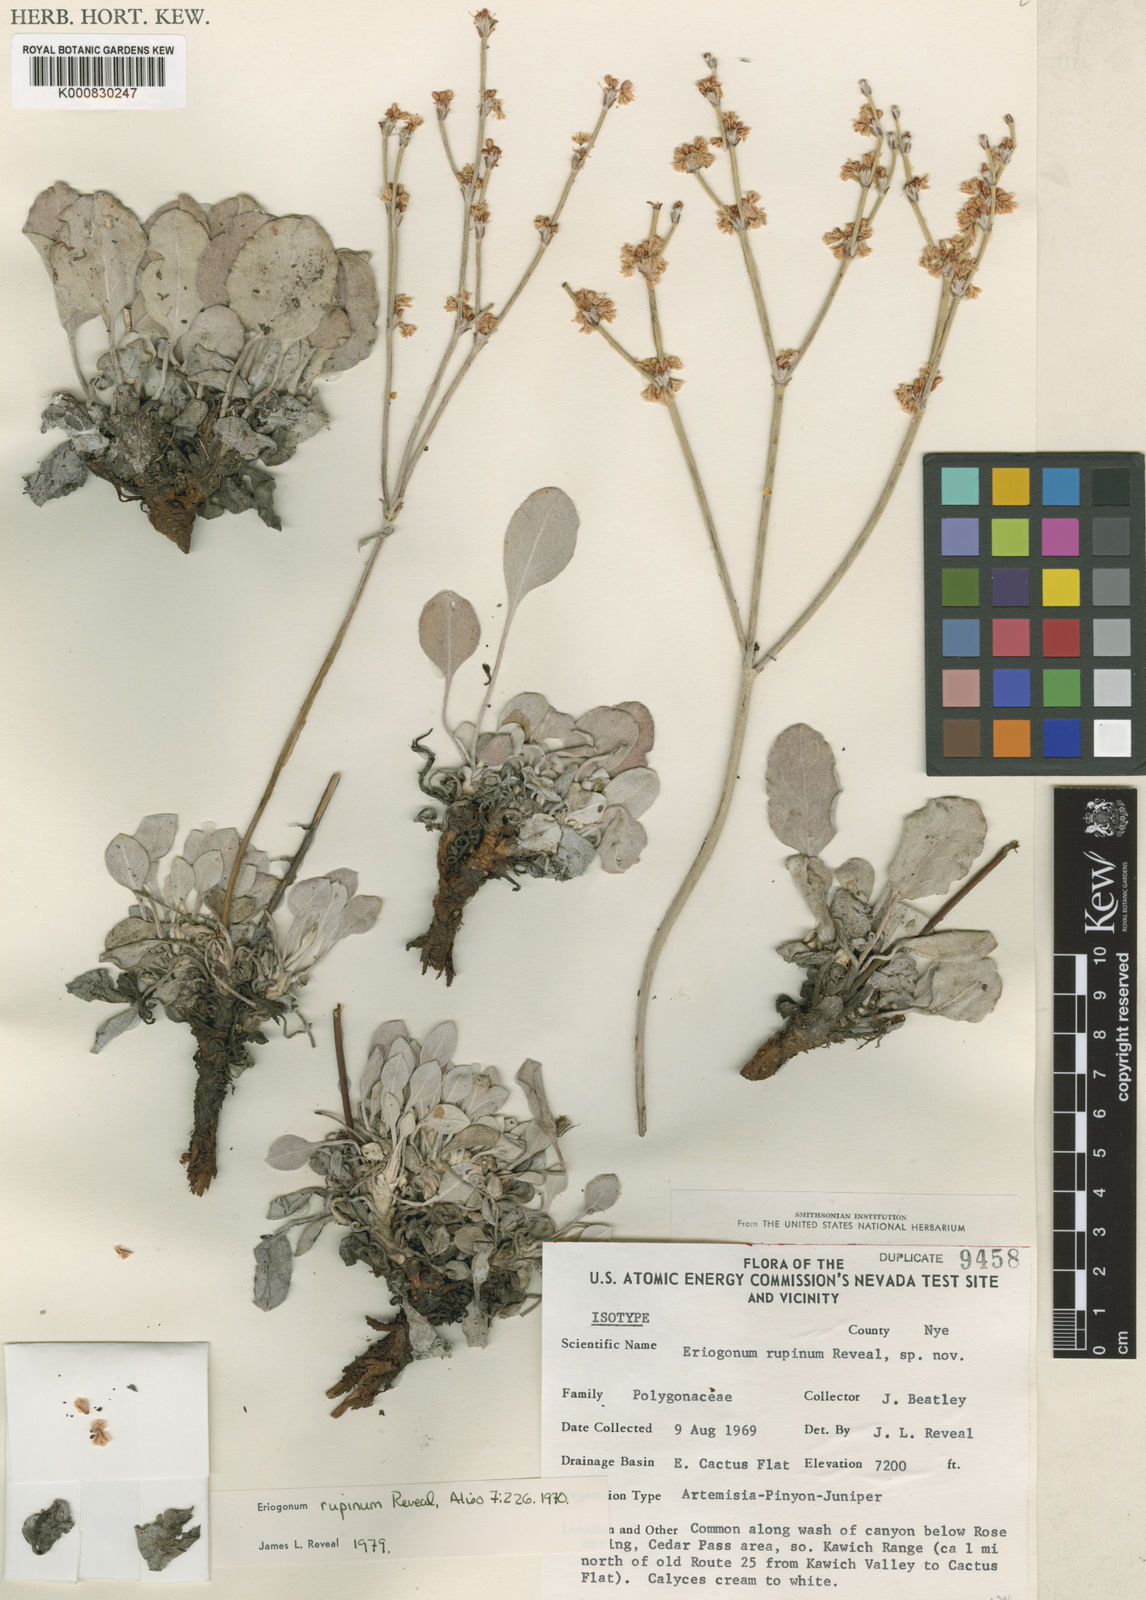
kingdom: Plantae
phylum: Tracheophyta
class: Magnoliopsida
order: Caryophyllales
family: Polygonaceae
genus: Eriogonum
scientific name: Eriogonum rupinum
